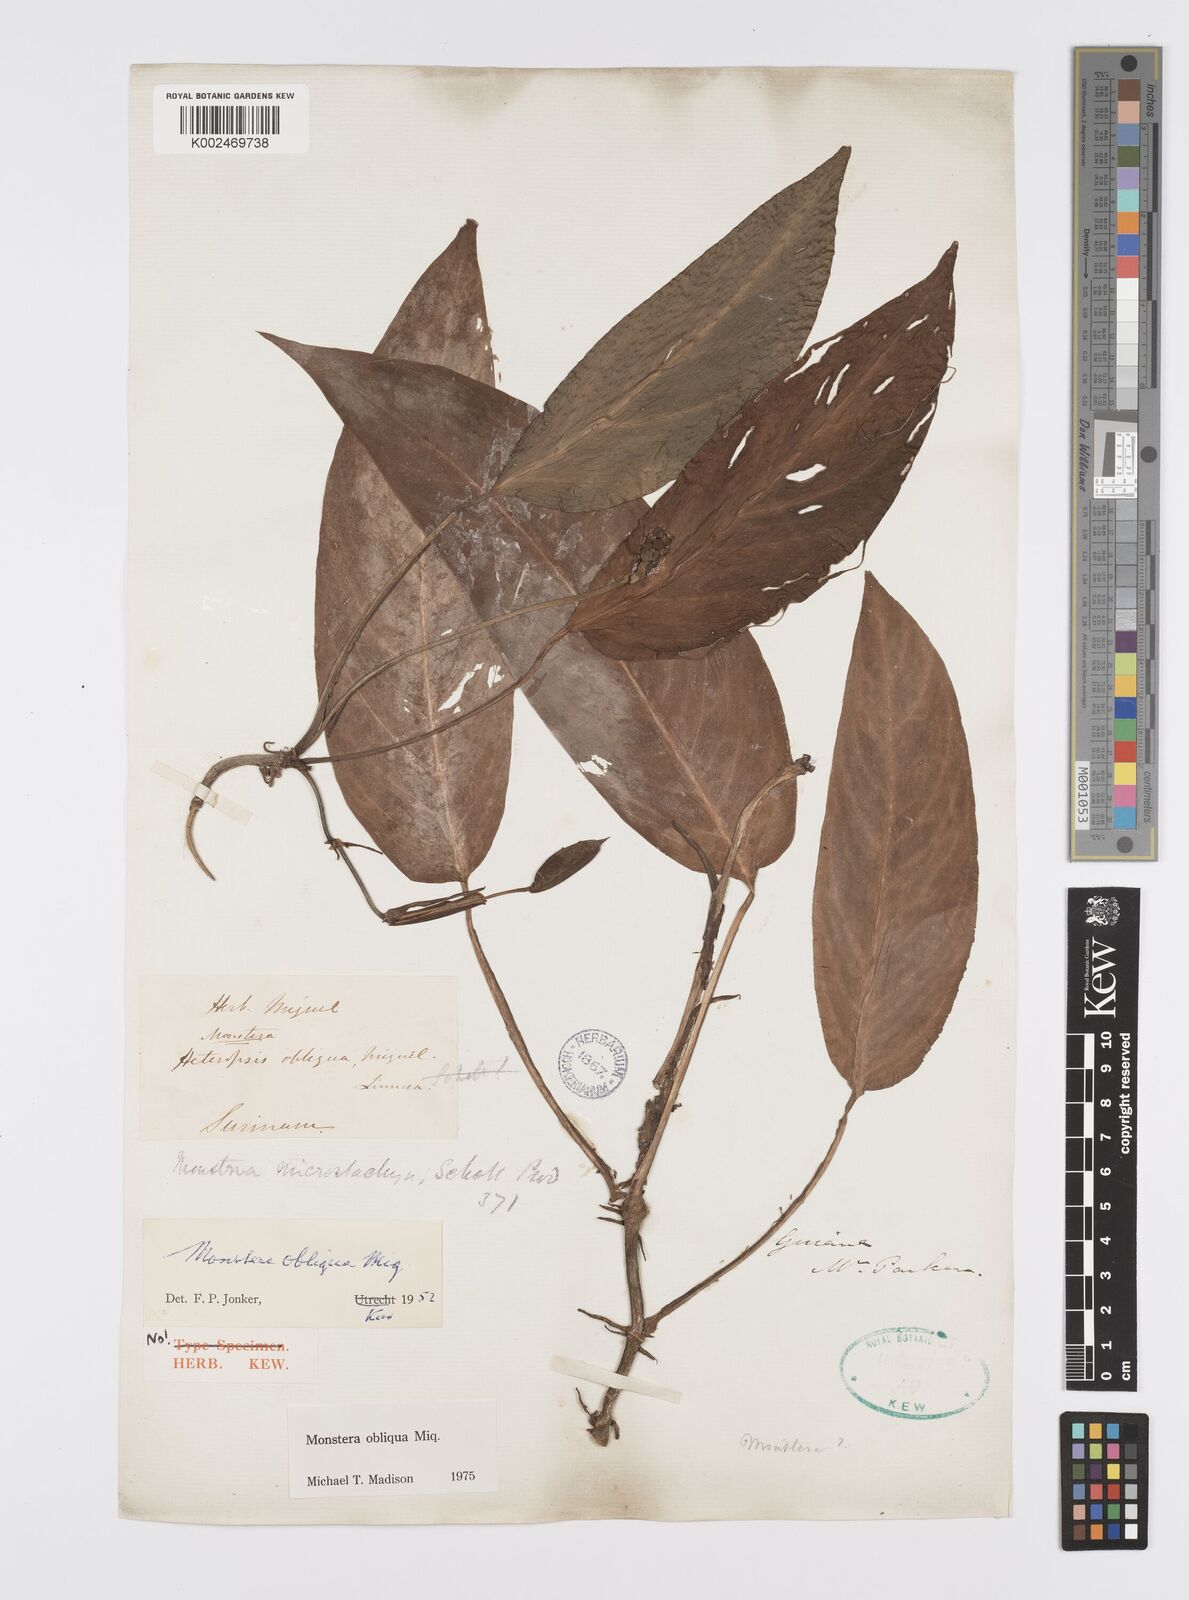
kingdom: Plantae
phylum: Tracheophyta
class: Liliopsida
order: Alismatales
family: Araceae
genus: Monstera
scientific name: Monstera obliqua
